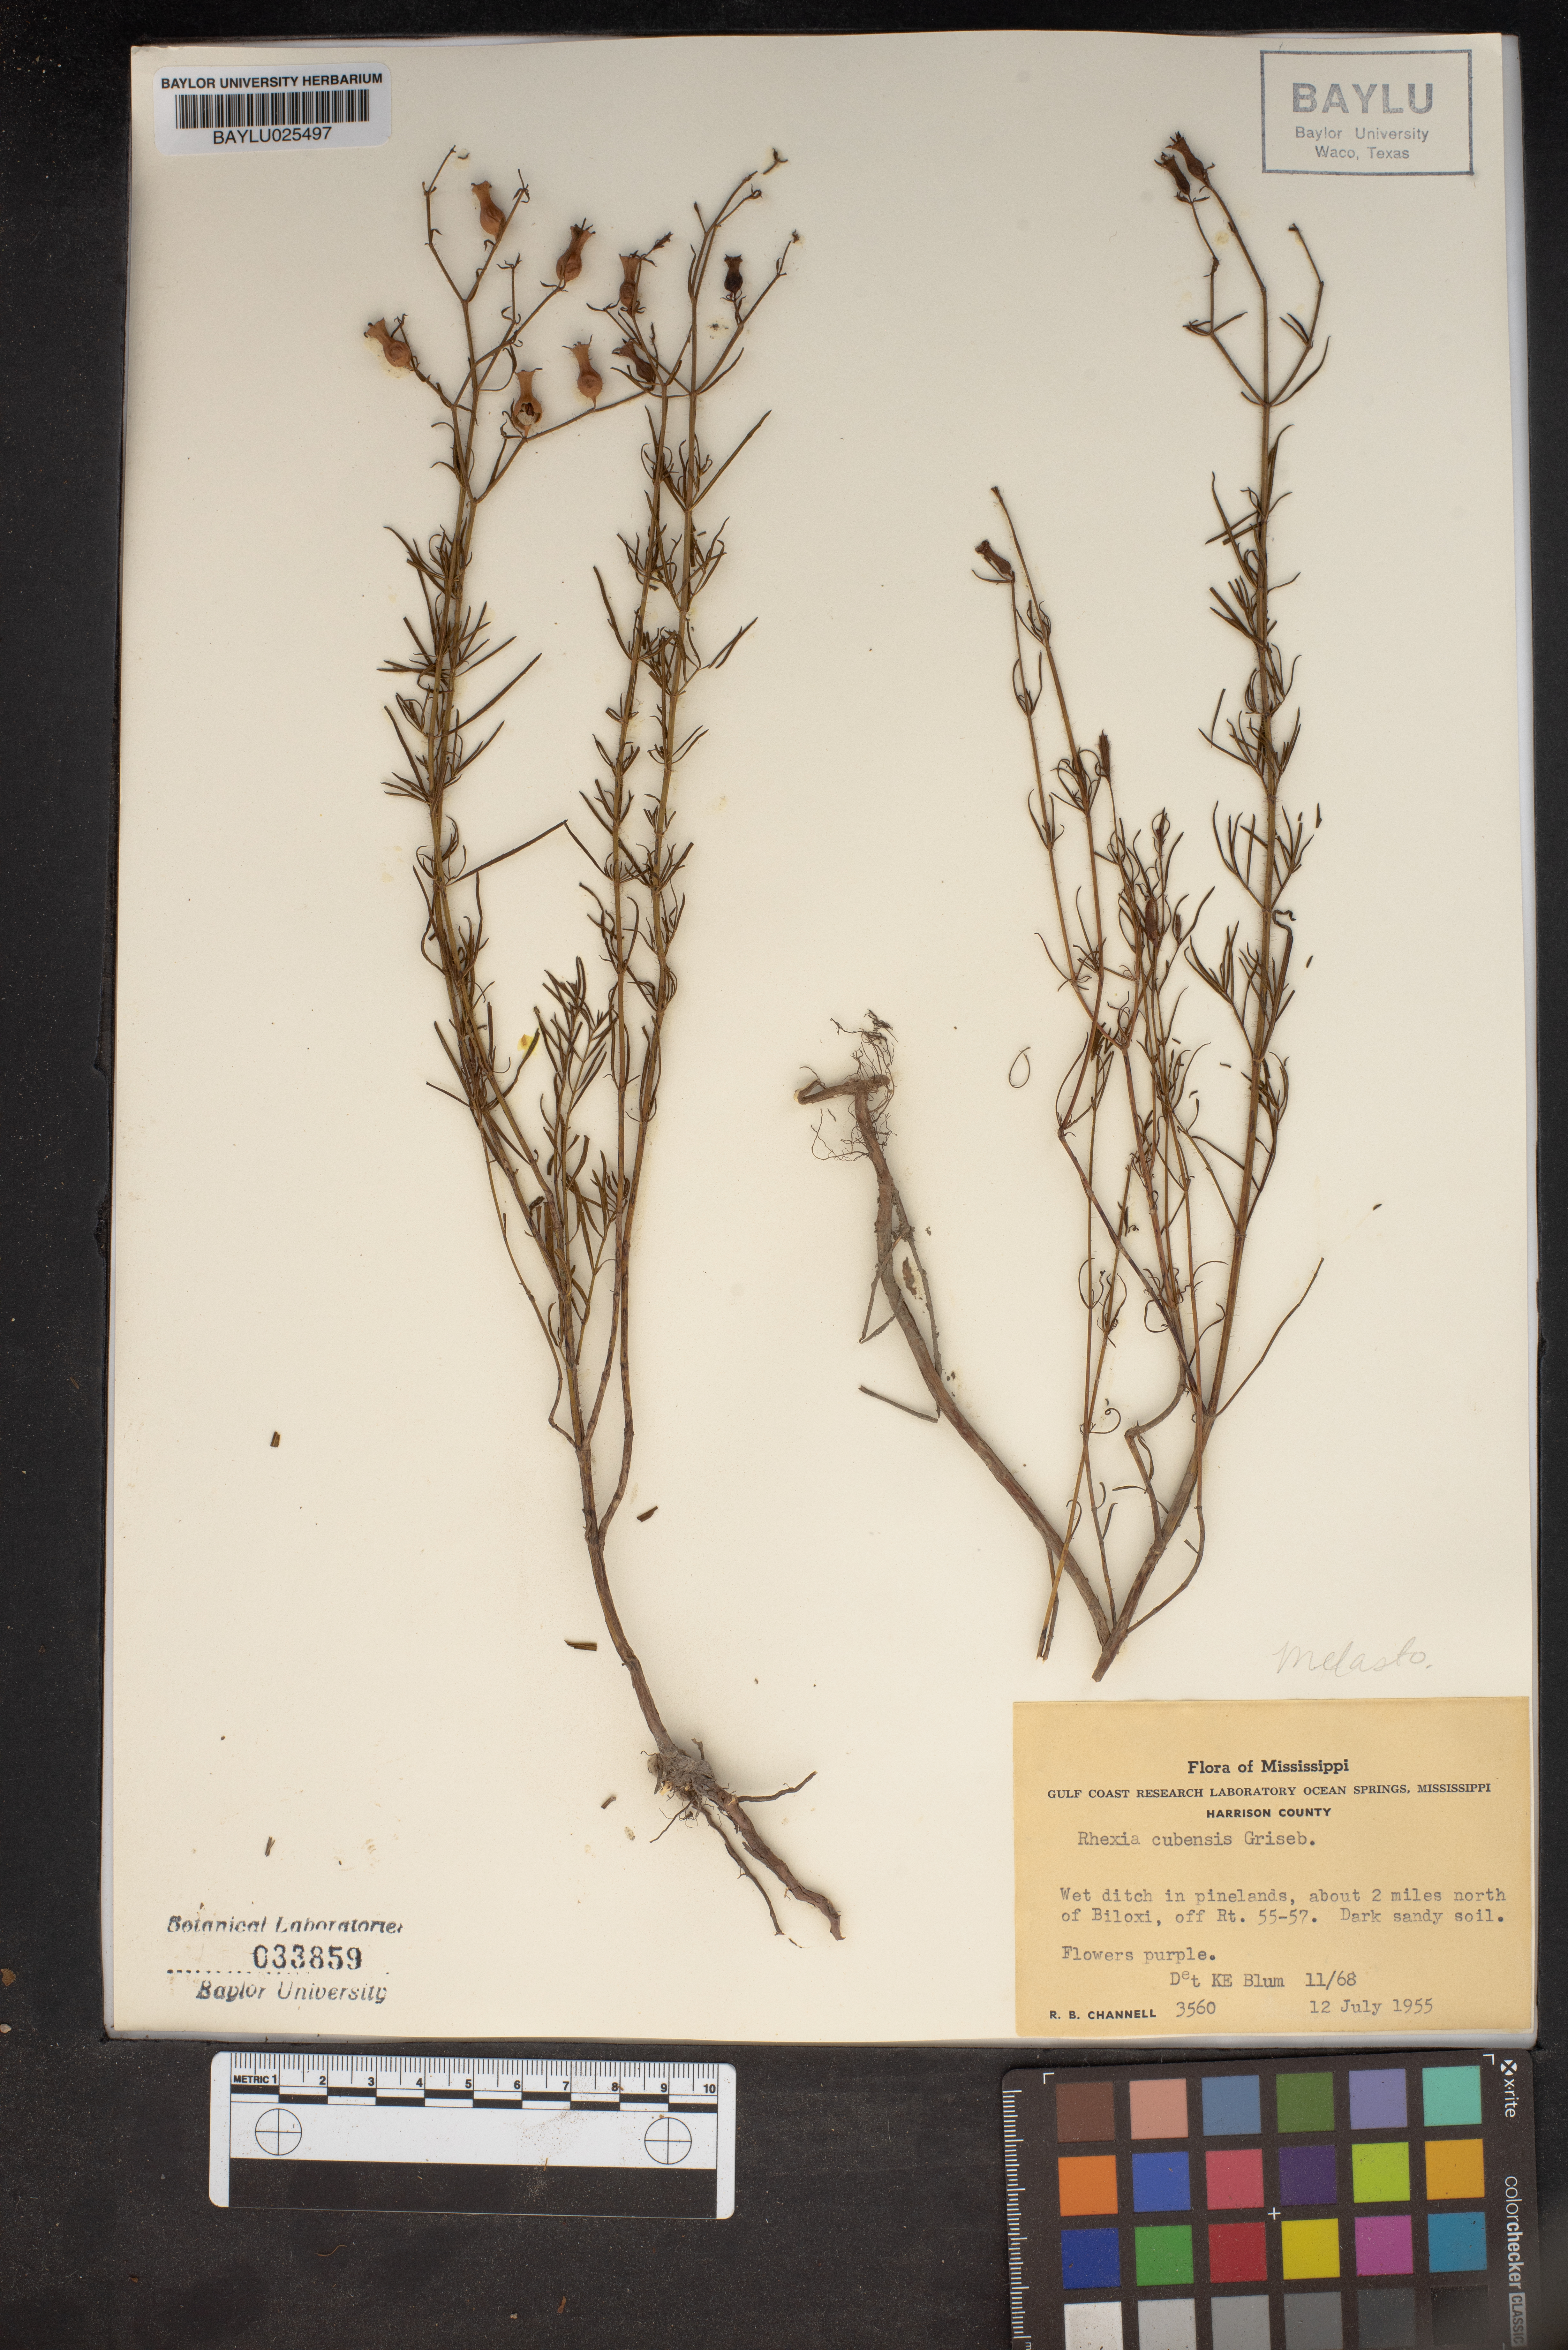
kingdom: Plantae
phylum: Tracheophyta
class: Magnoliopsida
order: Myrtales
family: Melastomataceae
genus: Rhexia
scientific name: Rhexia cubensis
